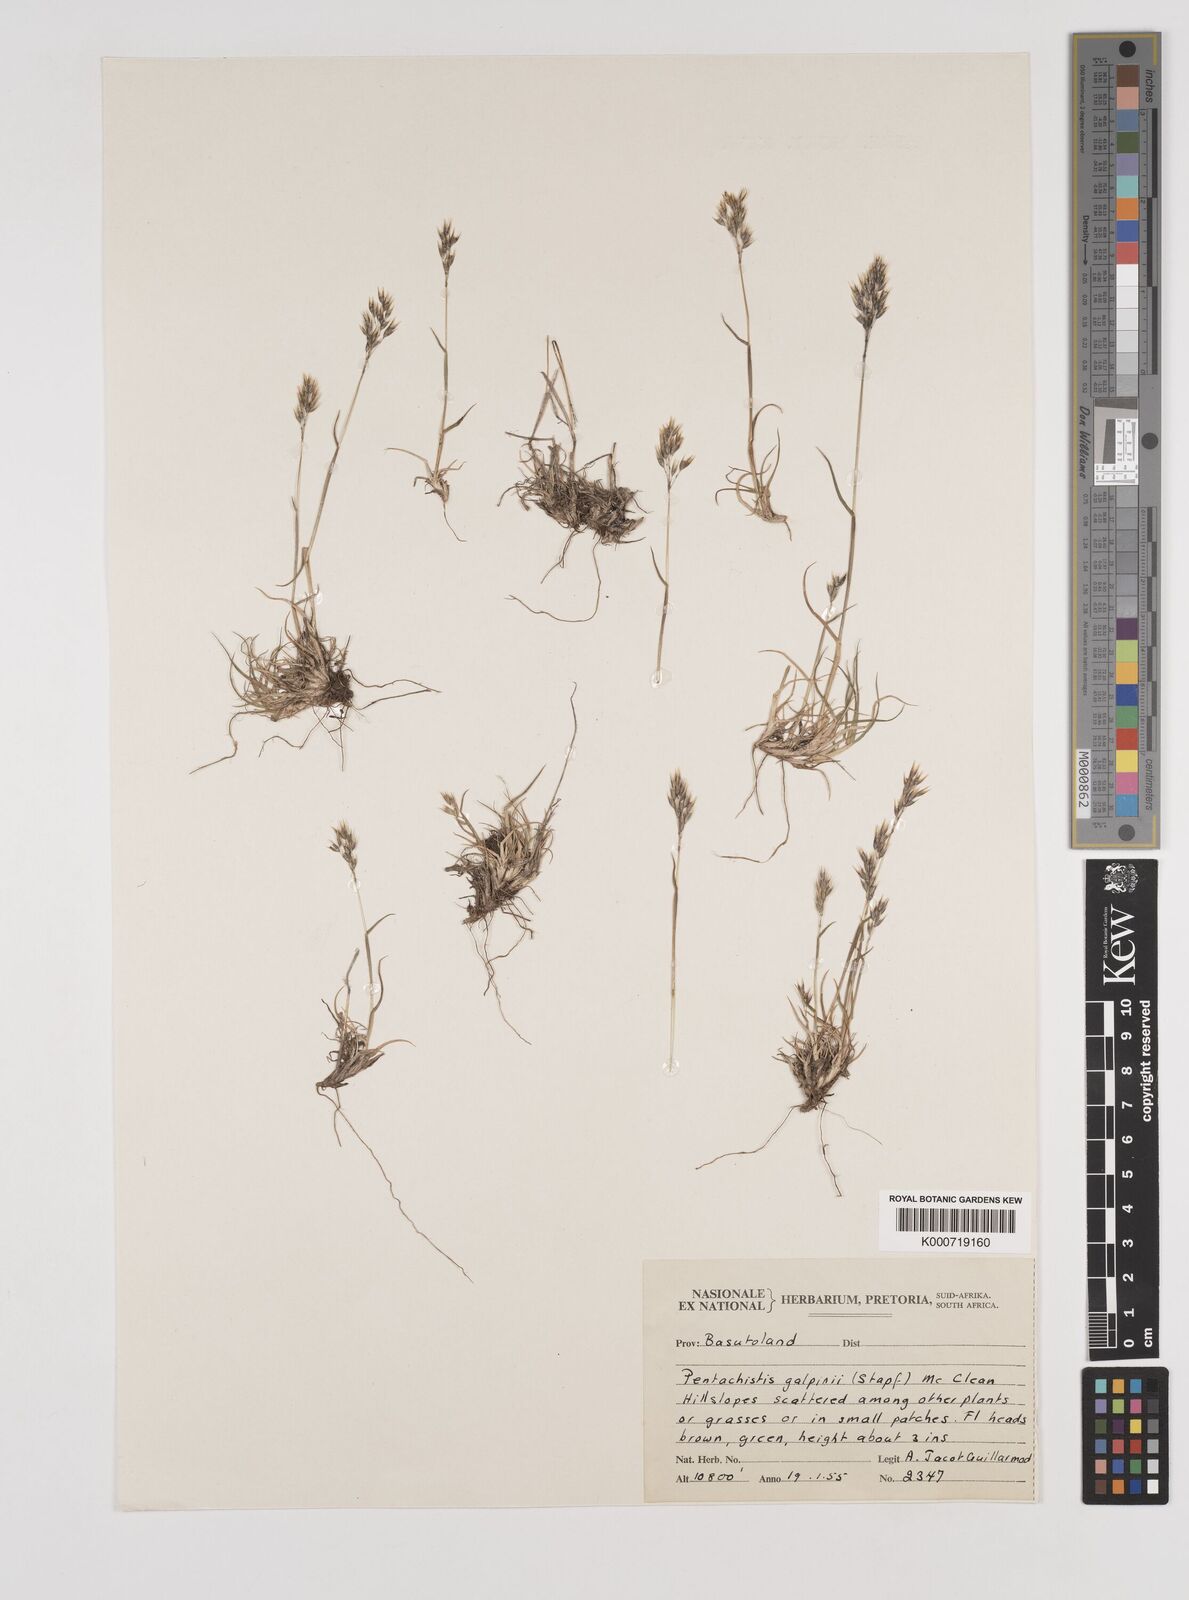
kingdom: Plantae
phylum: Tracheophyta
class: Liliopsida
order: Poales
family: Poaceae
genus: Pentameris
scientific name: Pentameris galpinii
